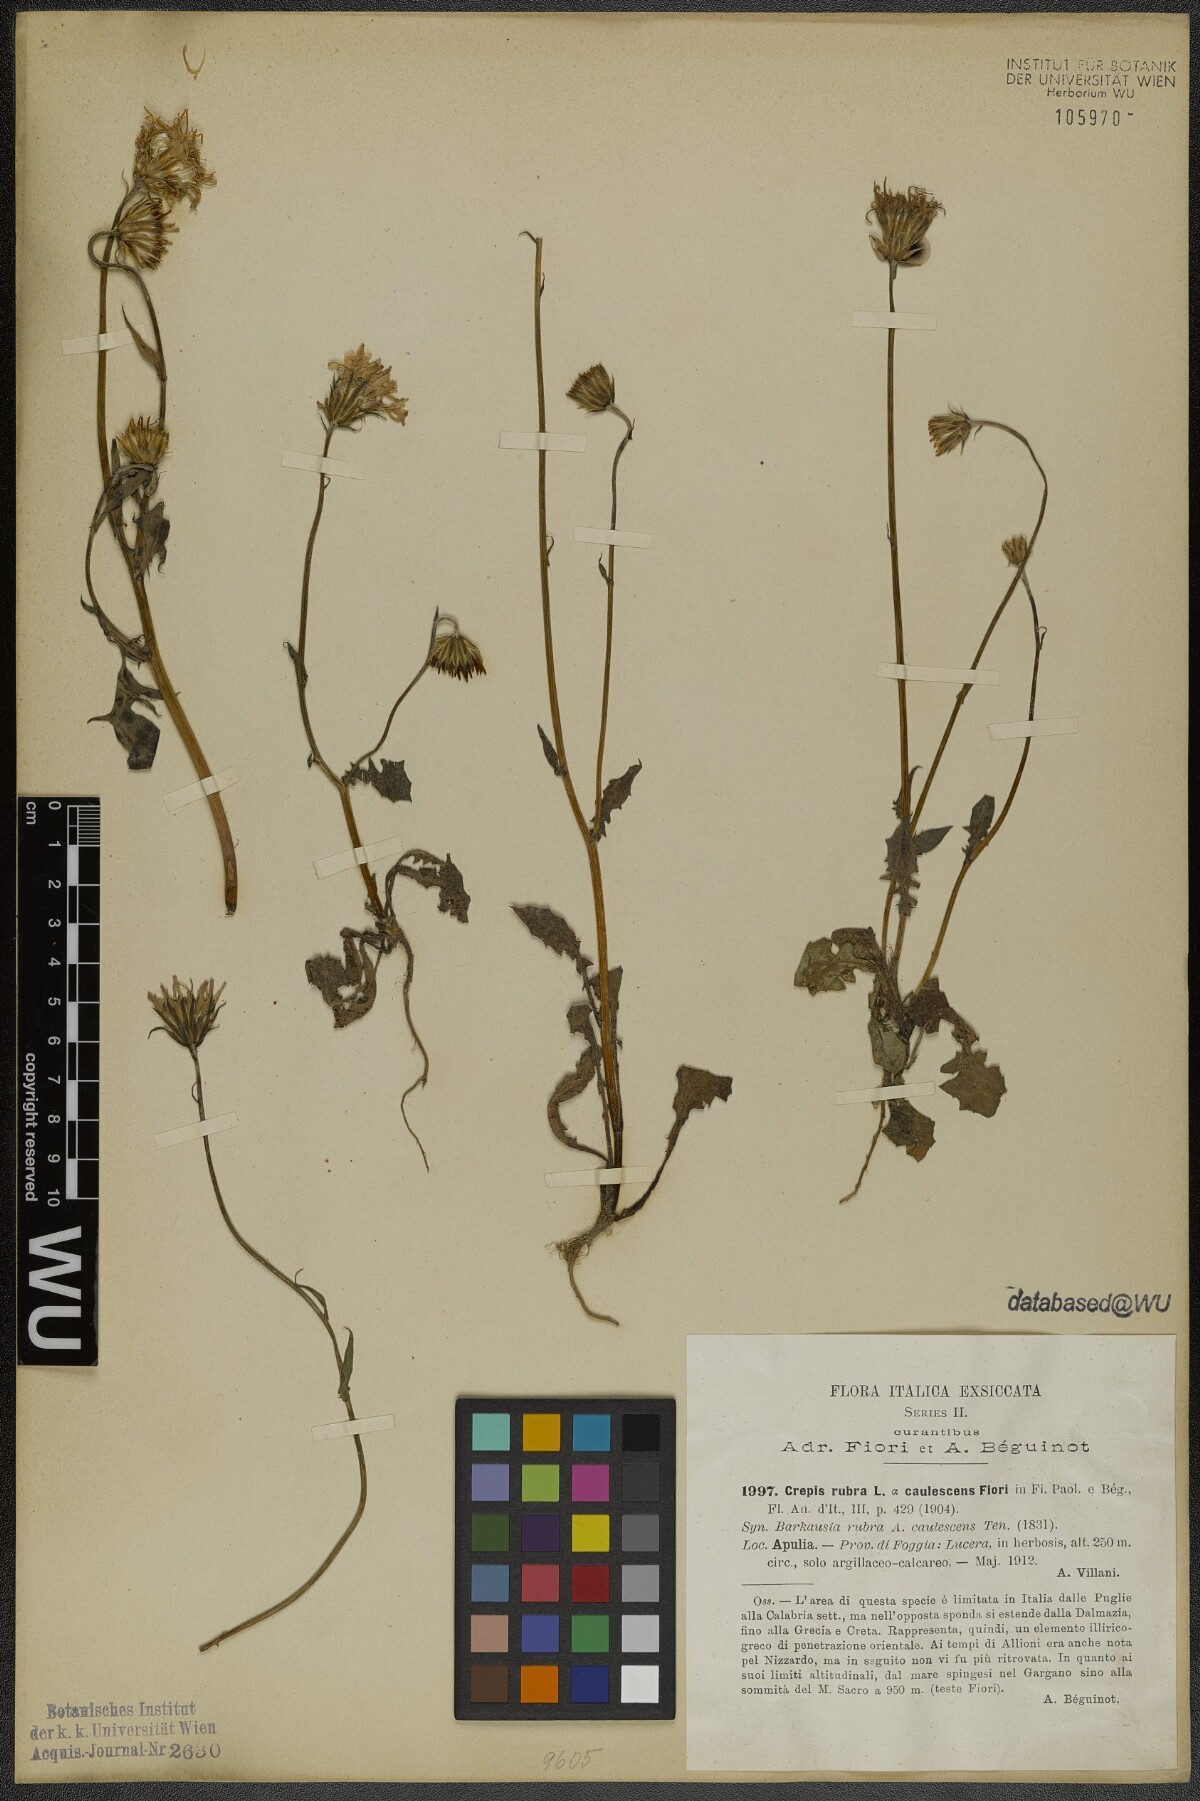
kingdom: Plantae
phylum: Tracheophyta
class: Magnoliopsida
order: Asterales
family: Asteraceae
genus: Crepis
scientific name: Crepis rubra
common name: Pink hawk's-beard
